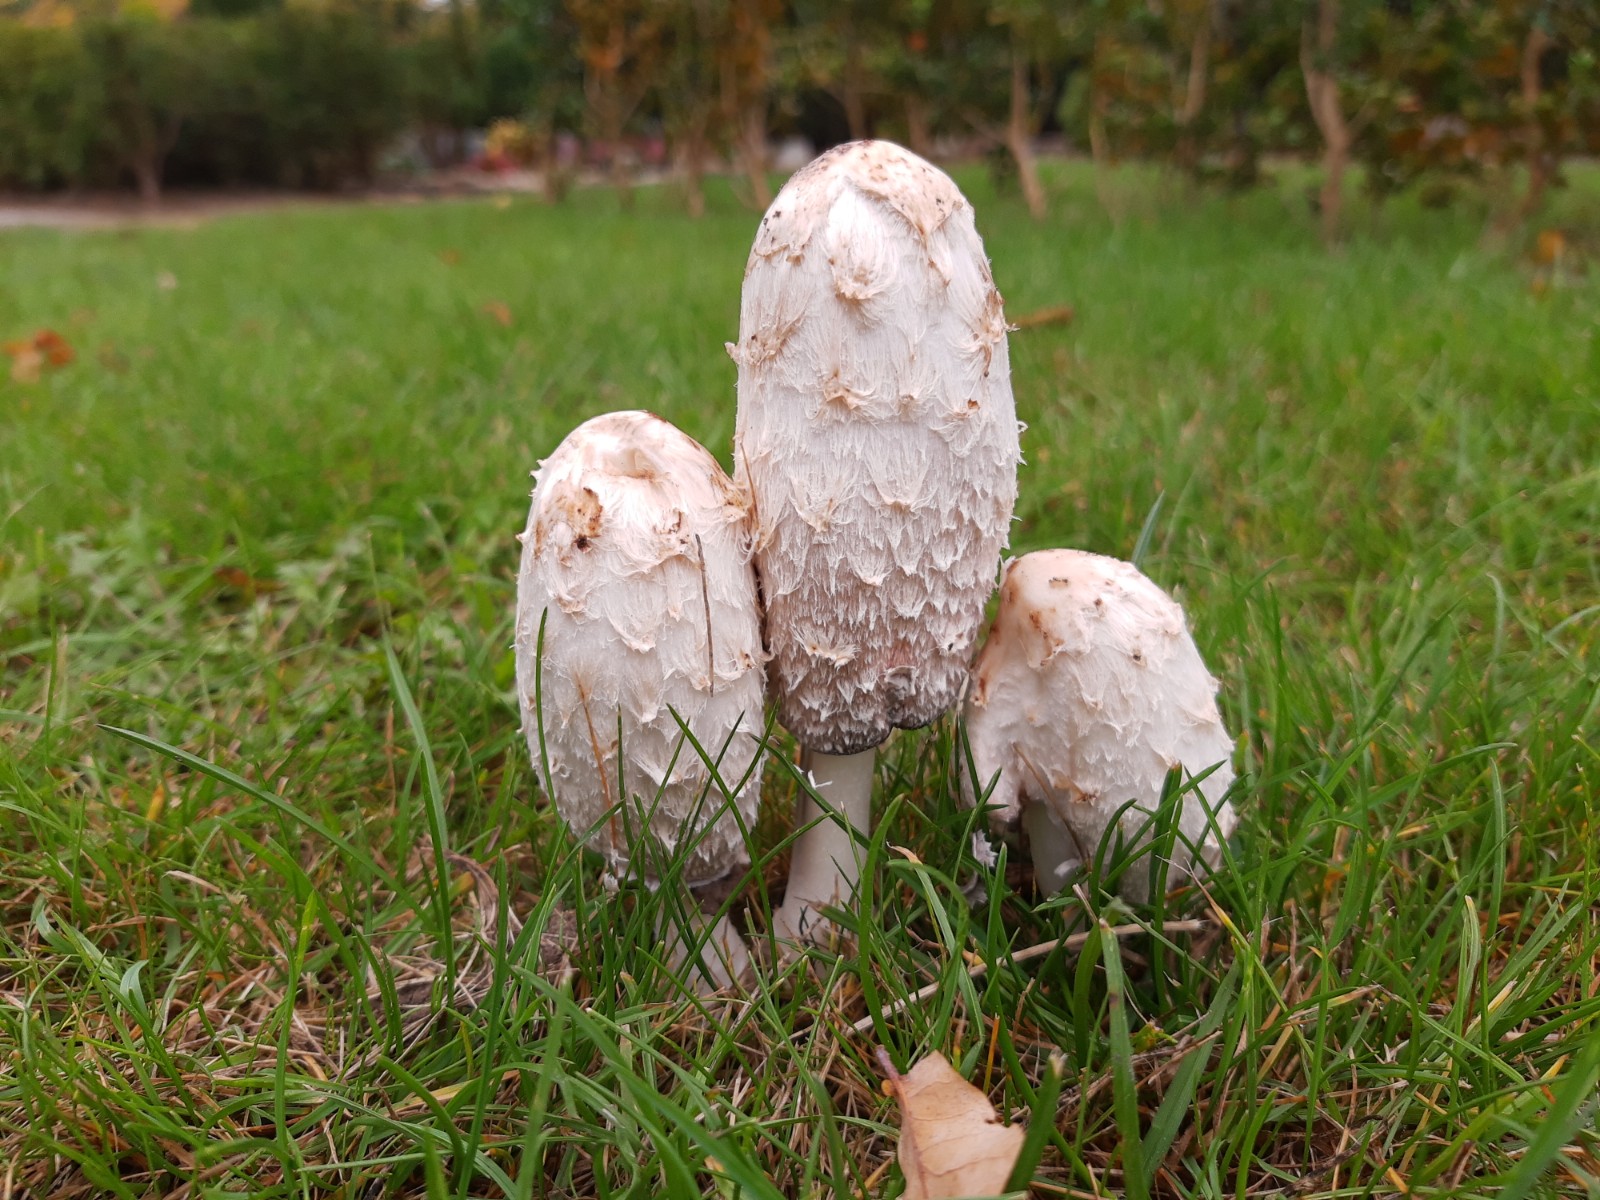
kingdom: Fungi
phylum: Basidiomycota
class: Agaricomycetes
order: Agaricales
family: Agaricaceae
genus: Coprinus
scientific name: Coprinus comatus
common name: stor parykhat
